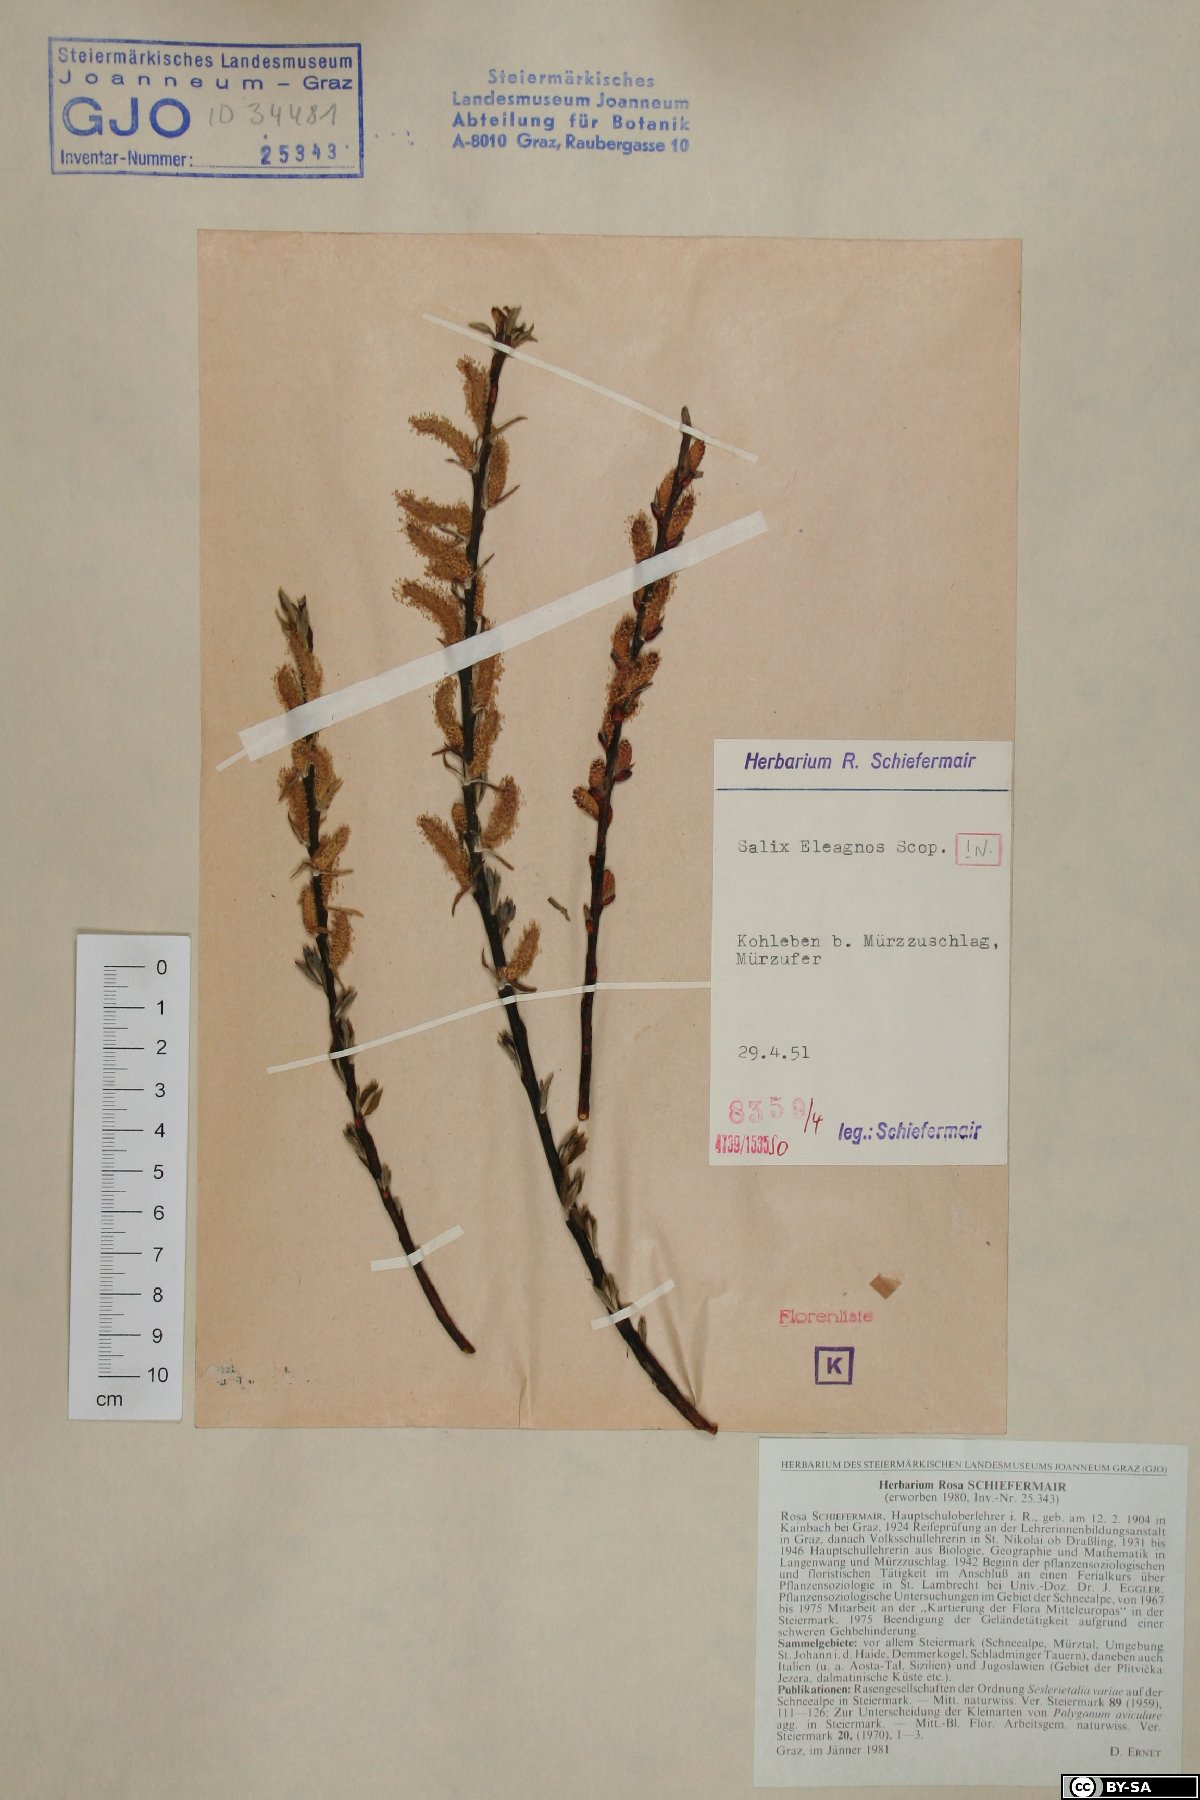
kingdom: Plantae
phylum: Tracheophyta
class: Magnoliopsida
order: Malpighiales
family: Salicaceae
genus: Salix
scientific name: Salix eleagnos
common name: Elaeagnus willow
